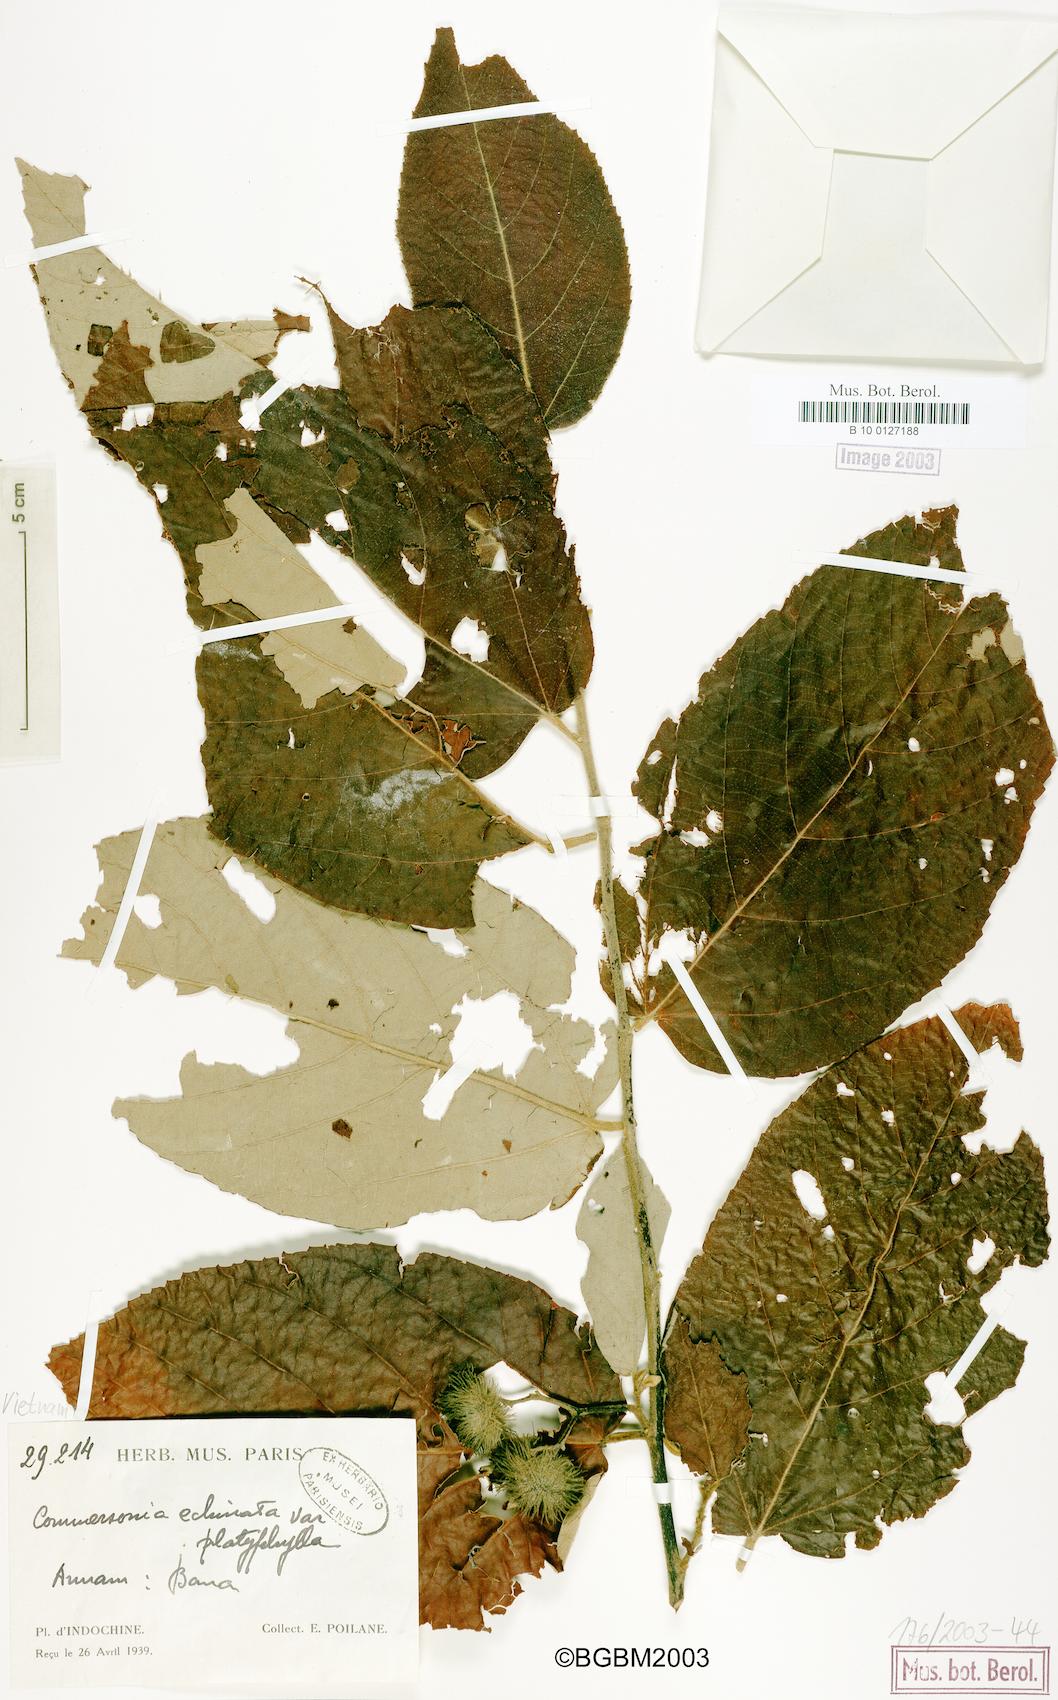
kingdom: Plantae
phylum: Tracheophyta
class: Magnoliopsida
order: Malvales
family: Malvaceae
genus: Commersonia
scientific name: Commersonia bartramia
